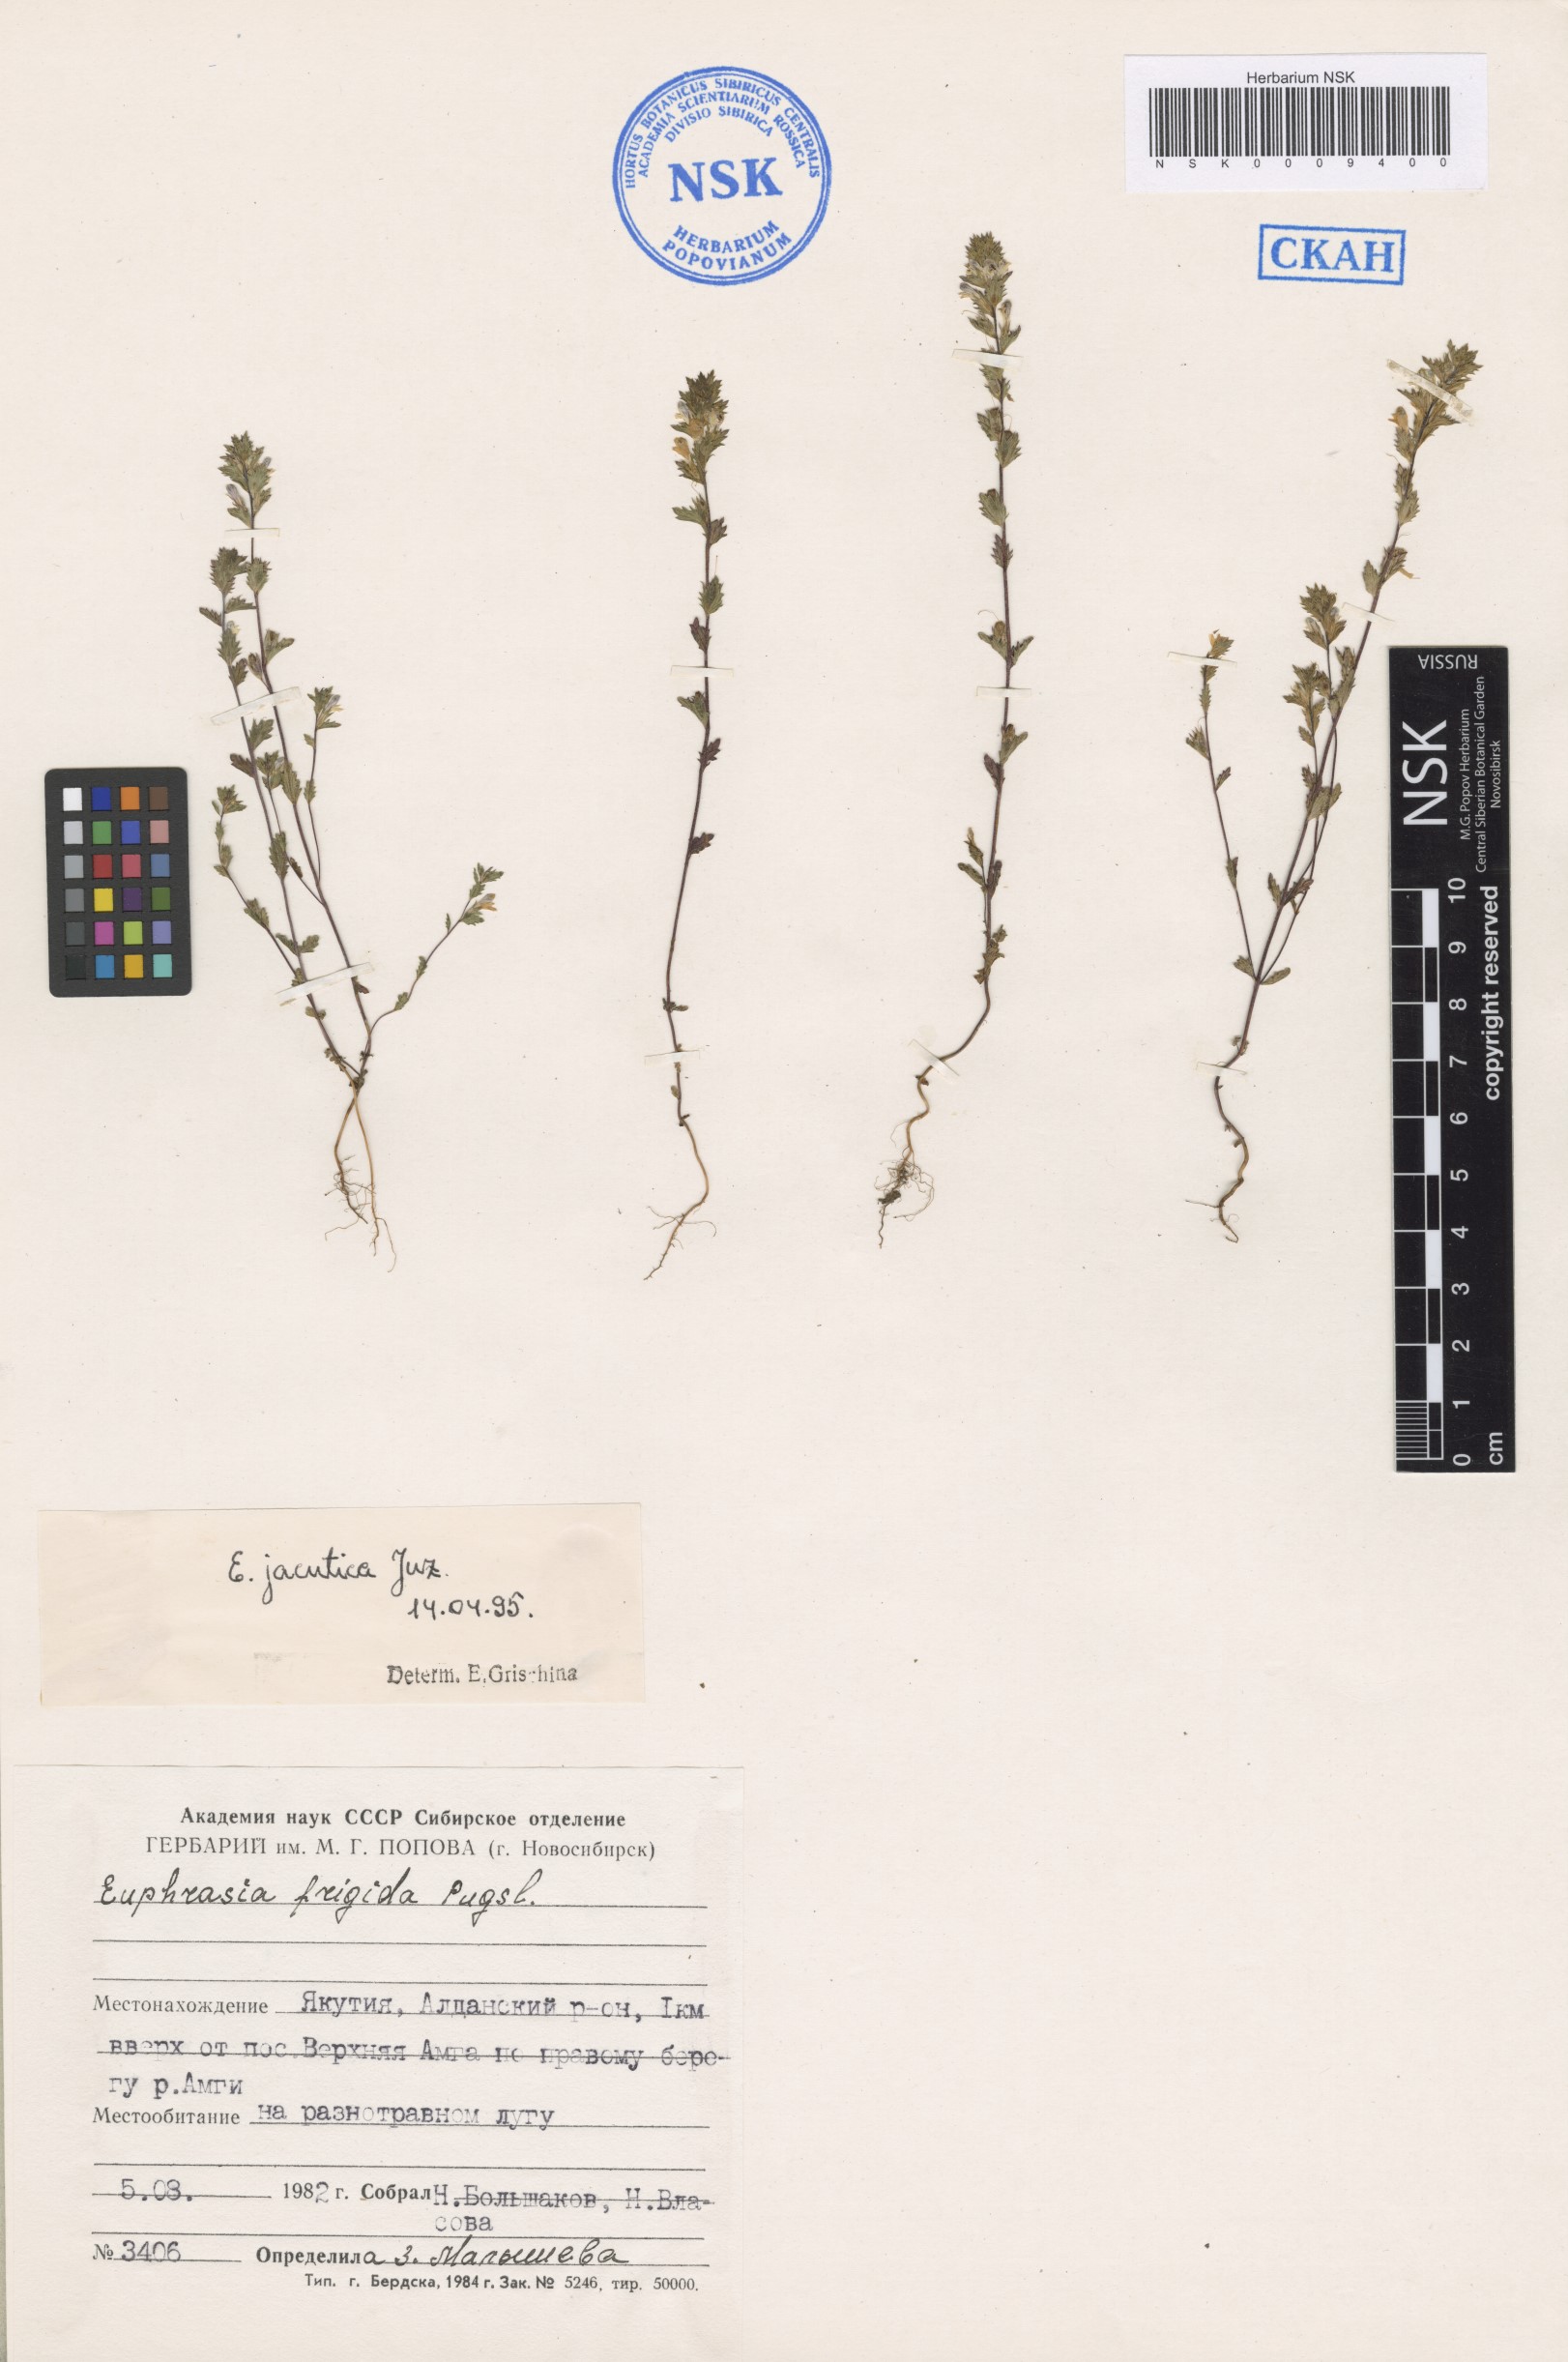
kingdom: Plantae
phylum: Tracheophyta
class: Magnoliopsida
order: Lamiales
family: Orobanchaceae
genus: Euphrasia
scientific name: Euphrasia jacutica
